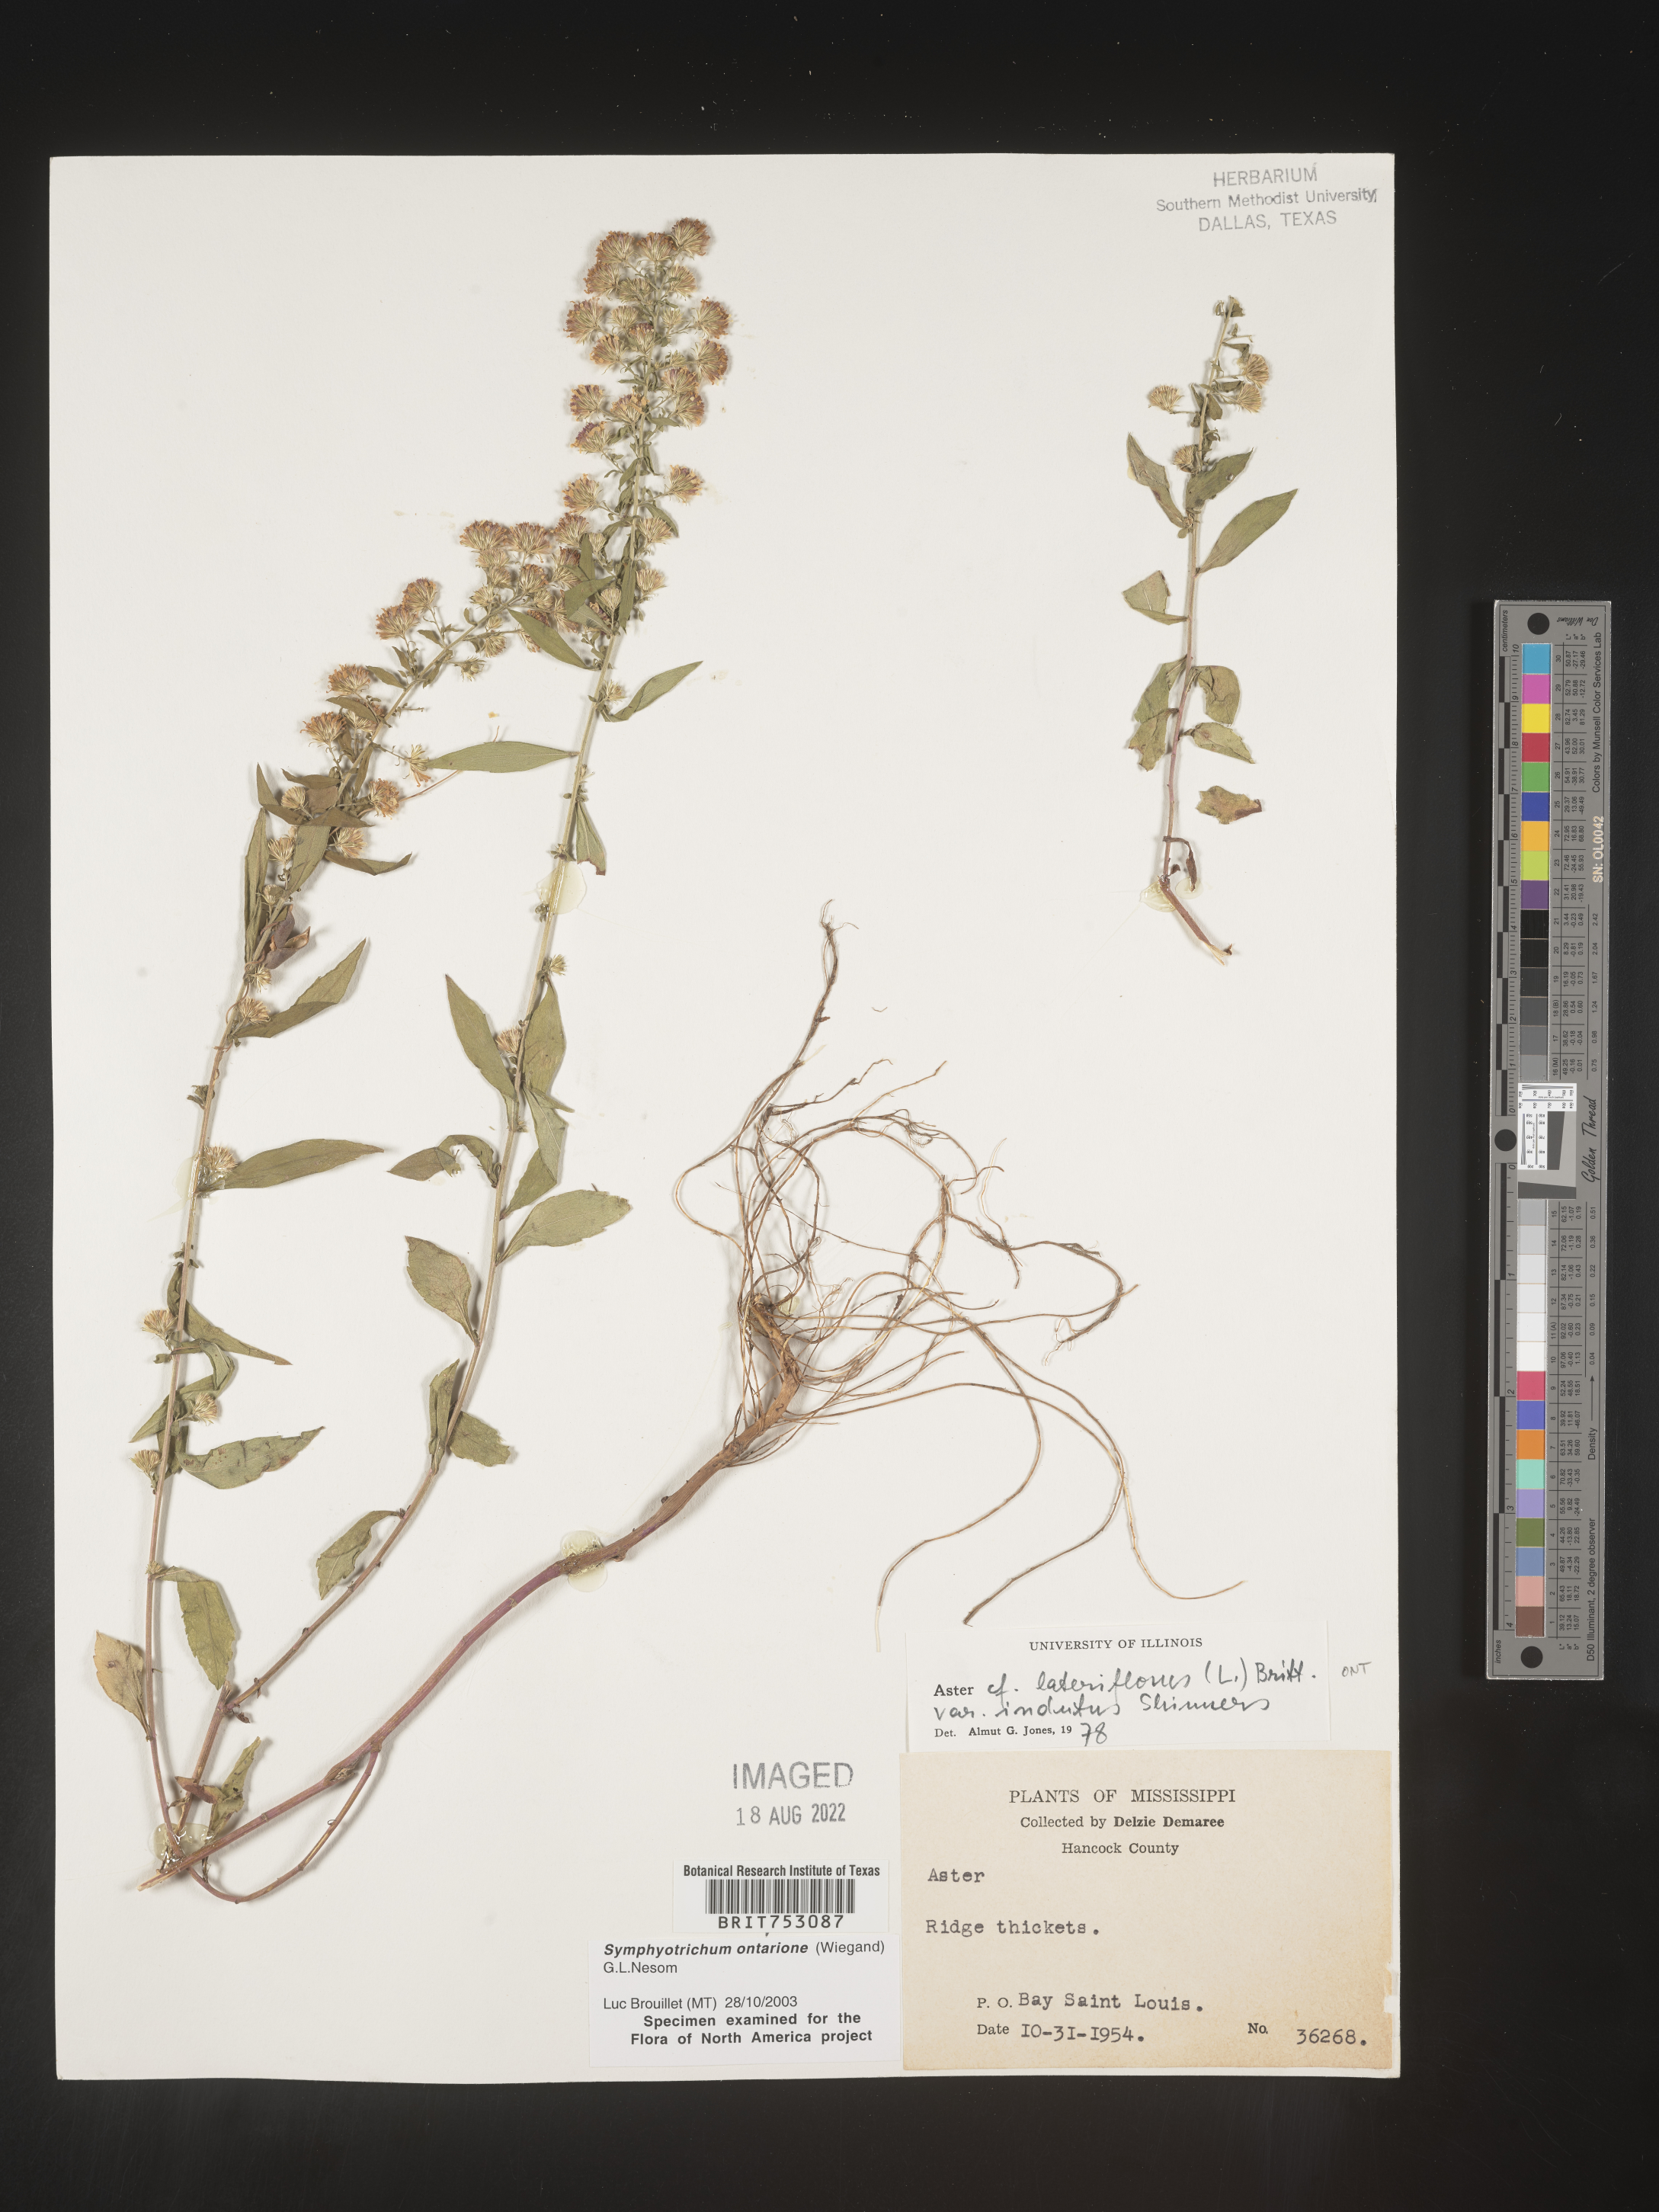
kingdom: Plantae
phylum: Tracheophyta
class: Magnoliopsida
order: Asterales
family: Asteraceae
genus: Symphyotrichum
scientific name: Symphyotrichum ontarionis
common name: Bottomland aster
